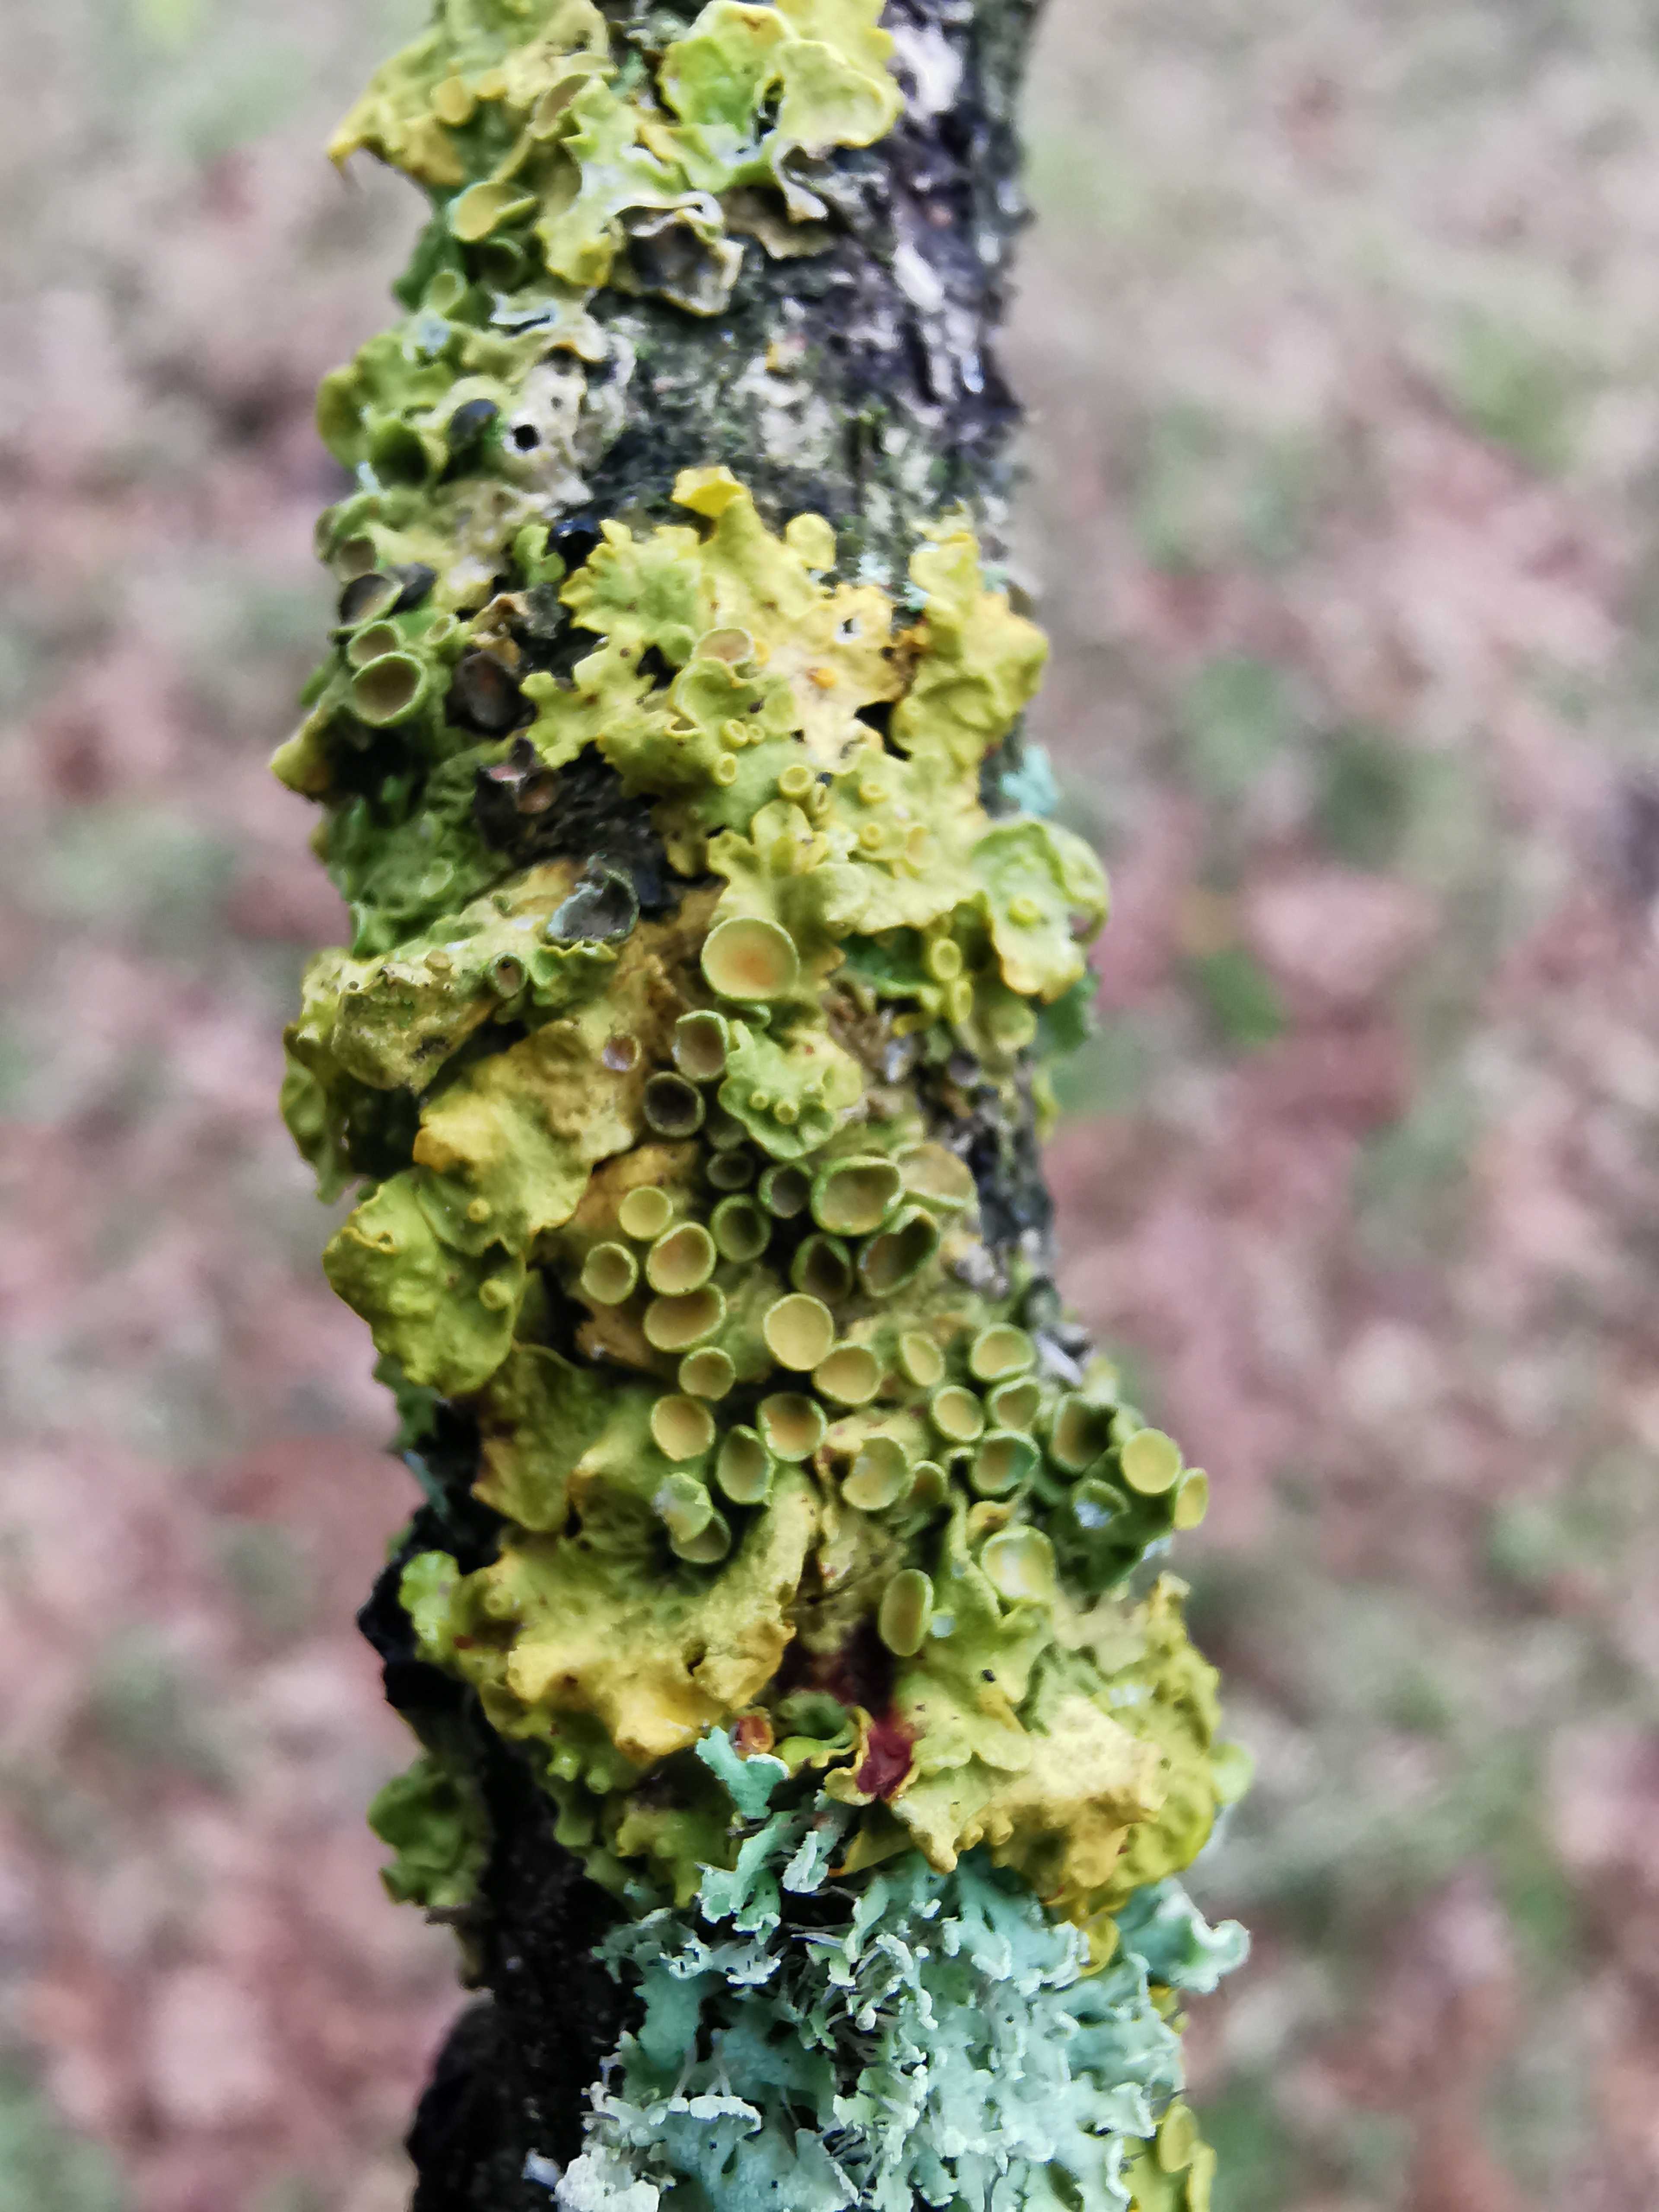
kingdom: Fungi
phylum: Ascomycota
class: Lecanoromycetes
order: Teloschistales
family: Teloschistaceae
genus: Xanthoria
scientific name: Xanthoria parietina
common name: almindelig væggelav
